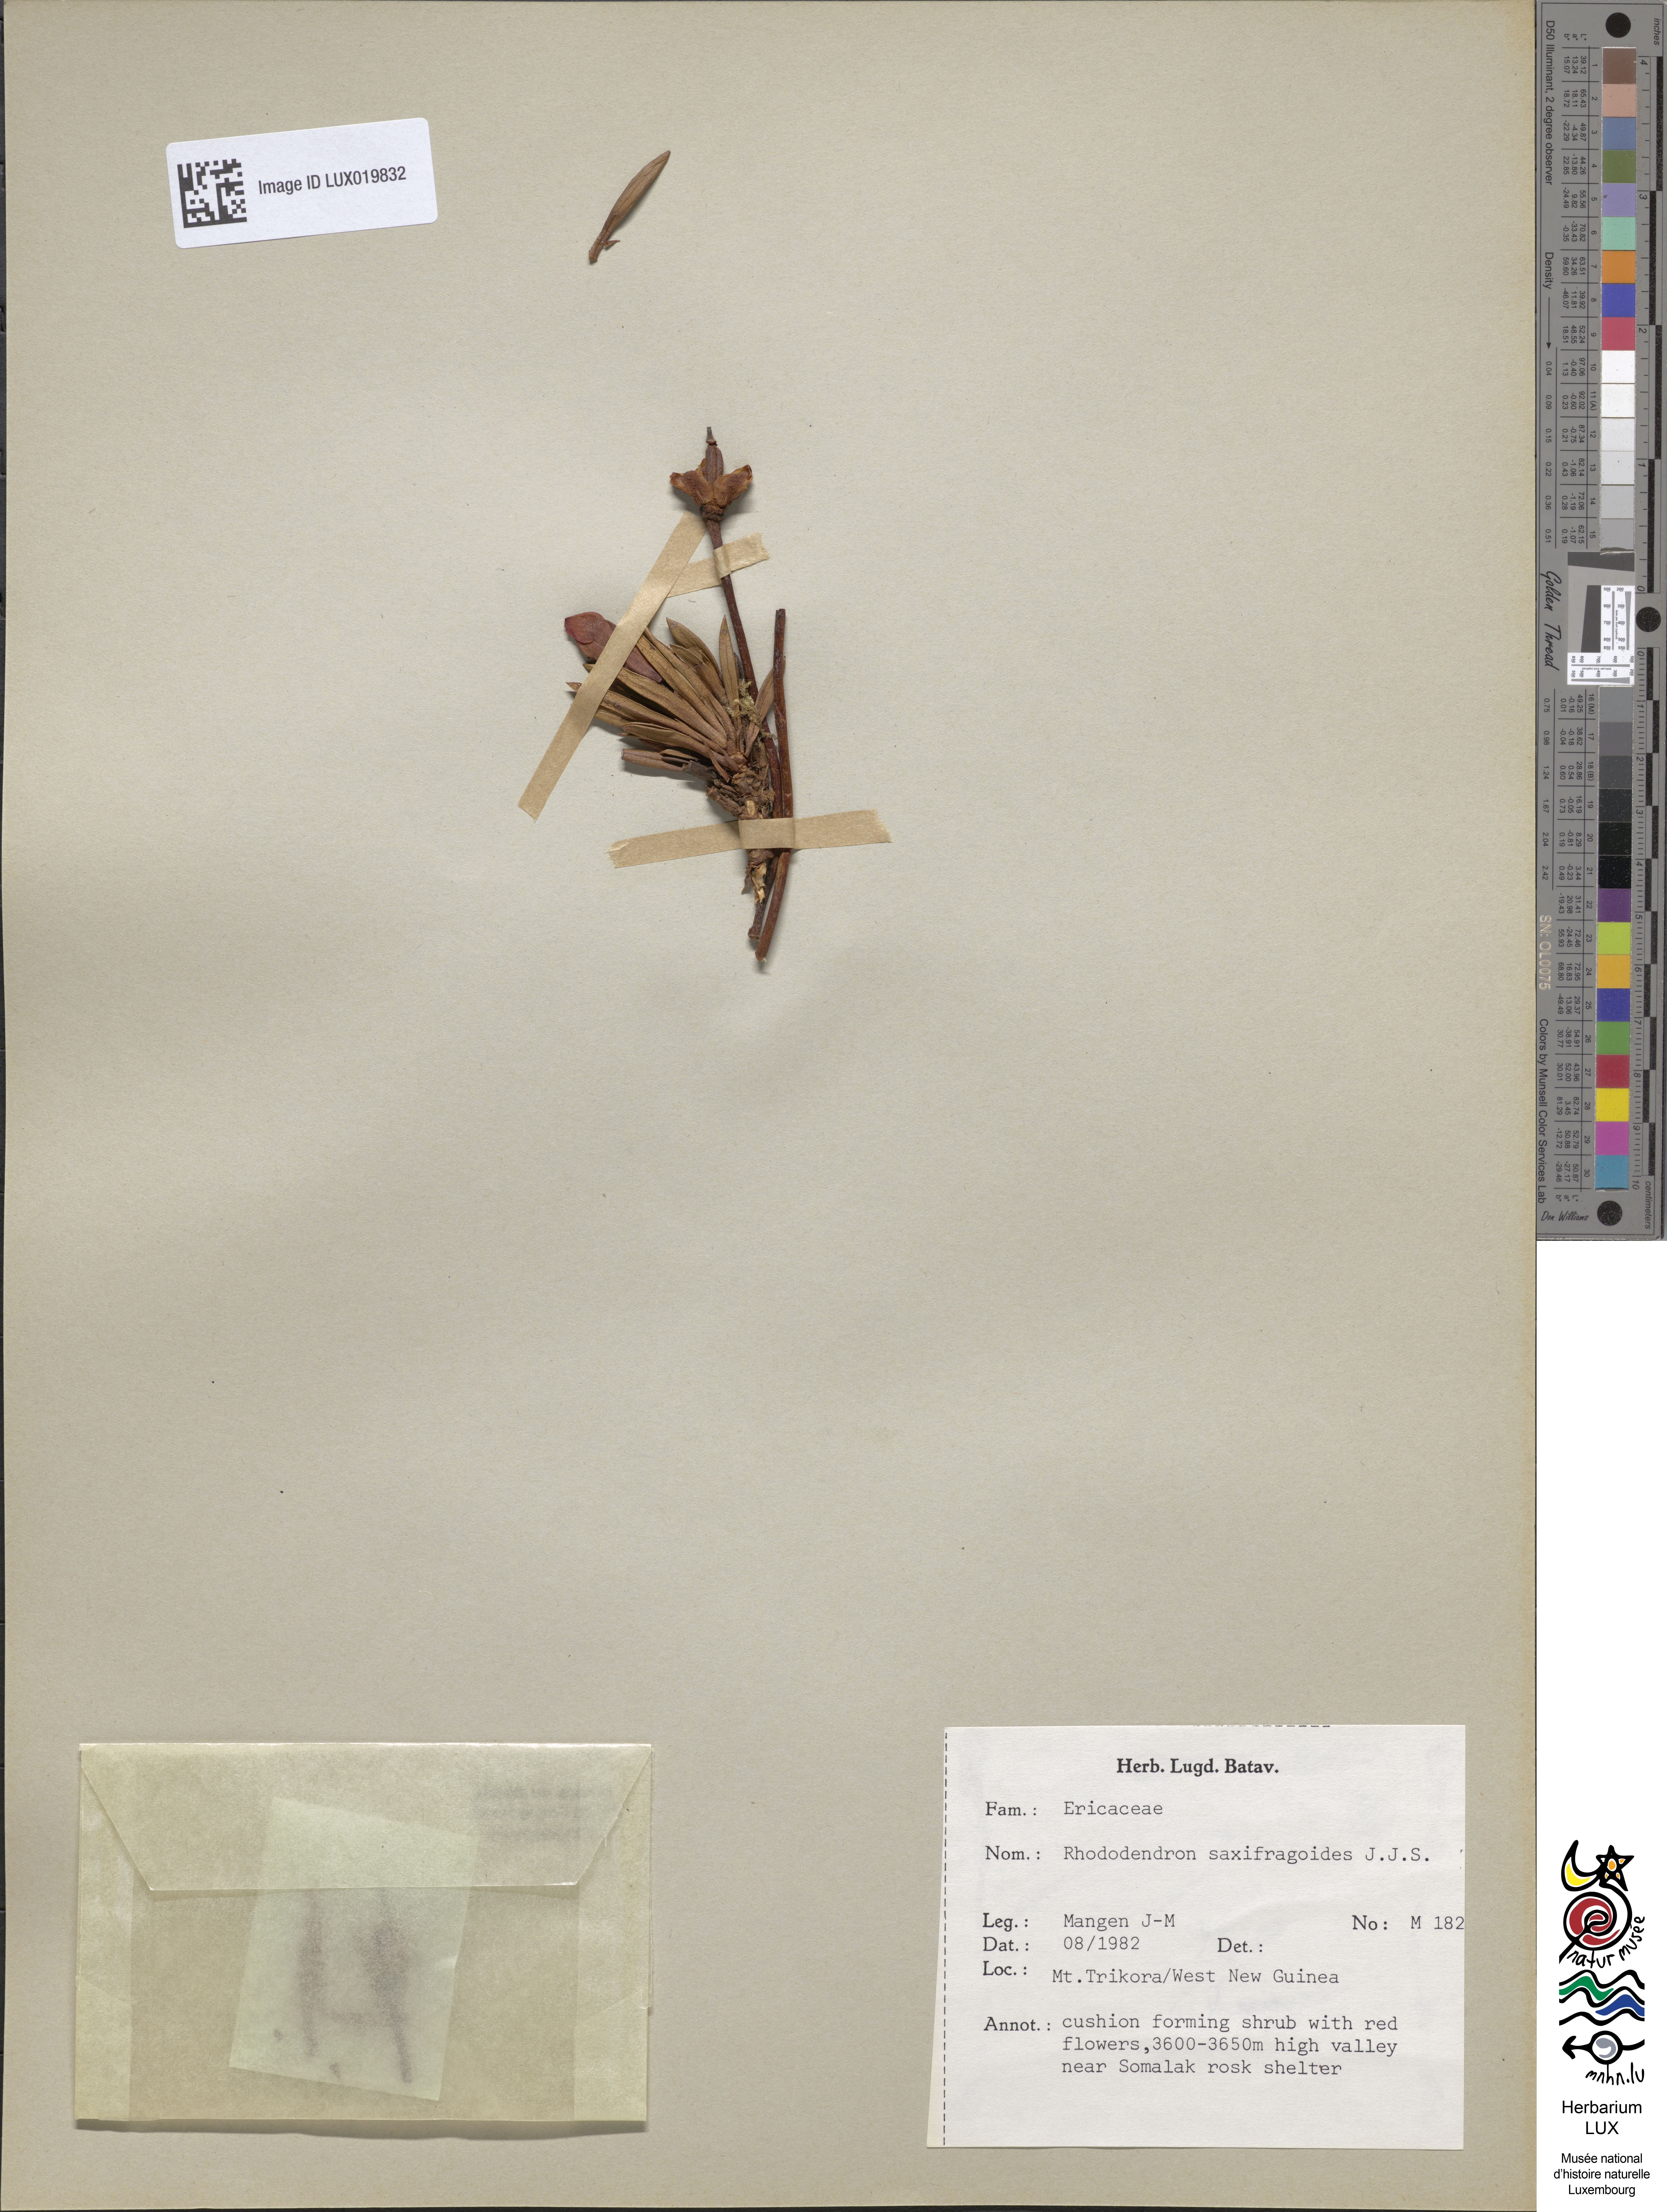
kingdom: Plantae
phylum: Tracheophyta
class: Magnoliopsida
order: Ericales
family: Ericaceae
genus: Rhododendron
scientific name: Rhododendron saxifragoides
